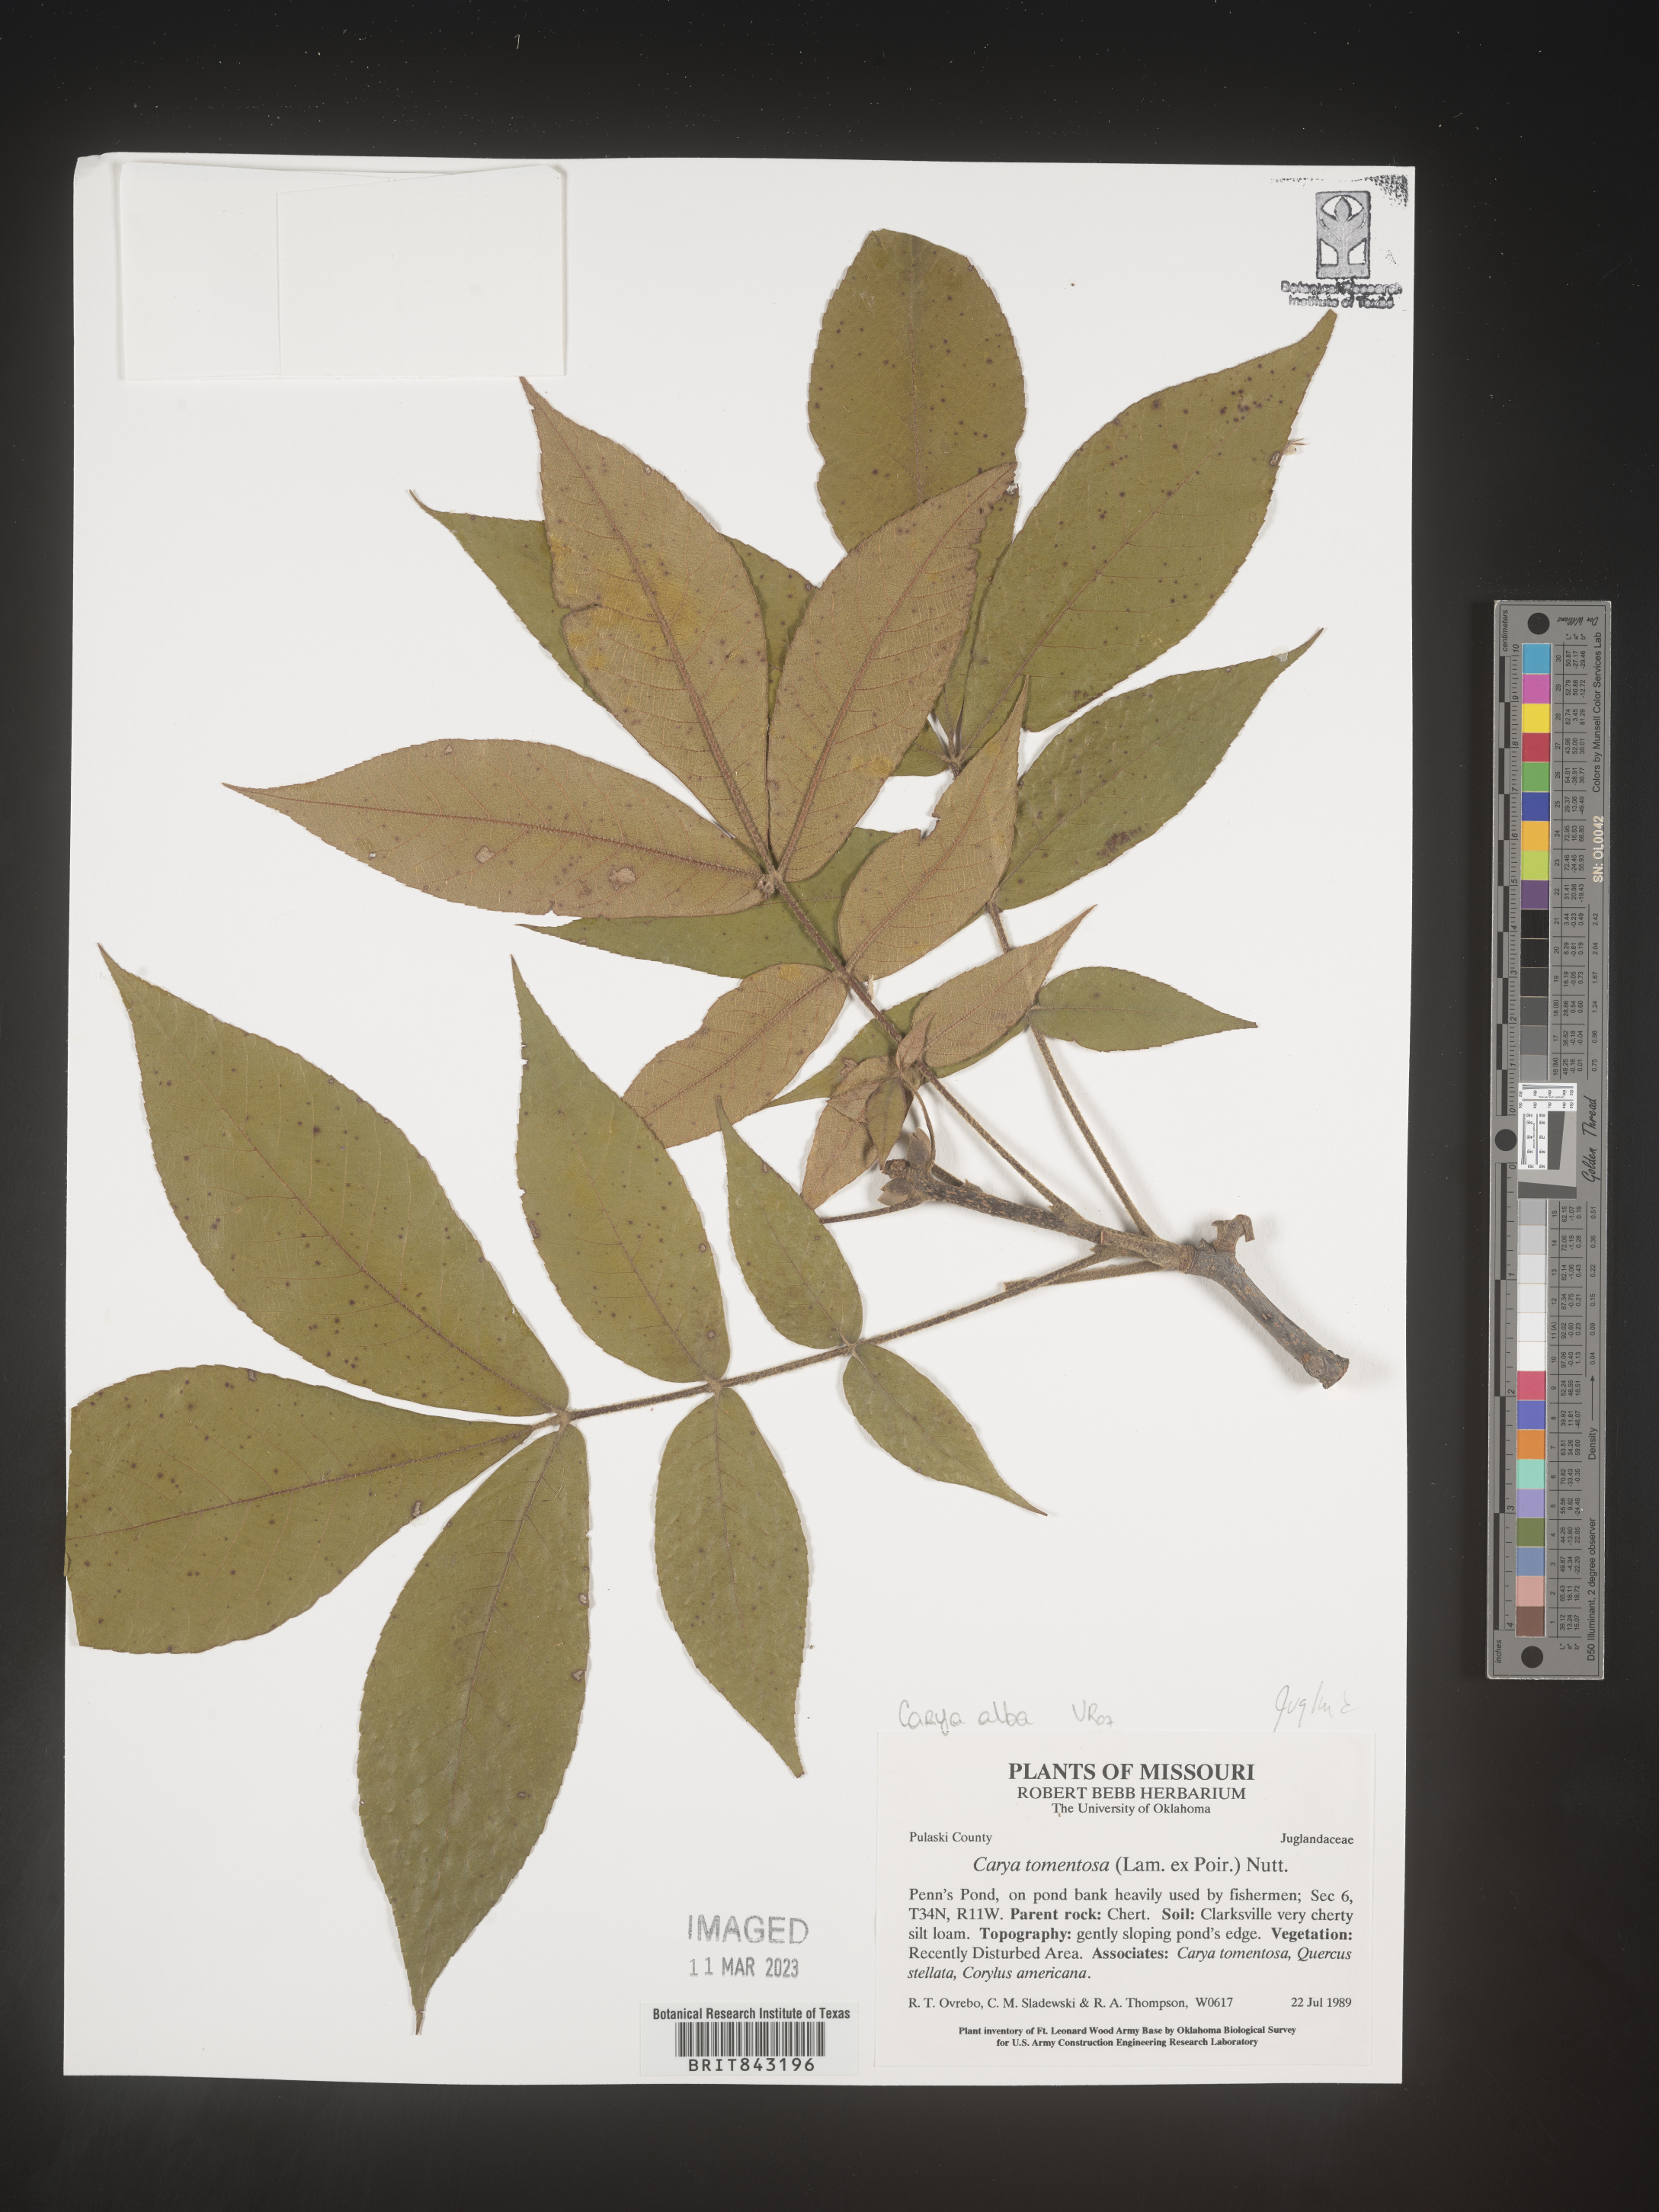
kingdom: Plantae
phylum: Tracheophyta
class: Magnoliopsida
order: Fagales
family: Juglandaceae
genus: Carya
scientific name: Carya alba
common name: Mockernut hickory
